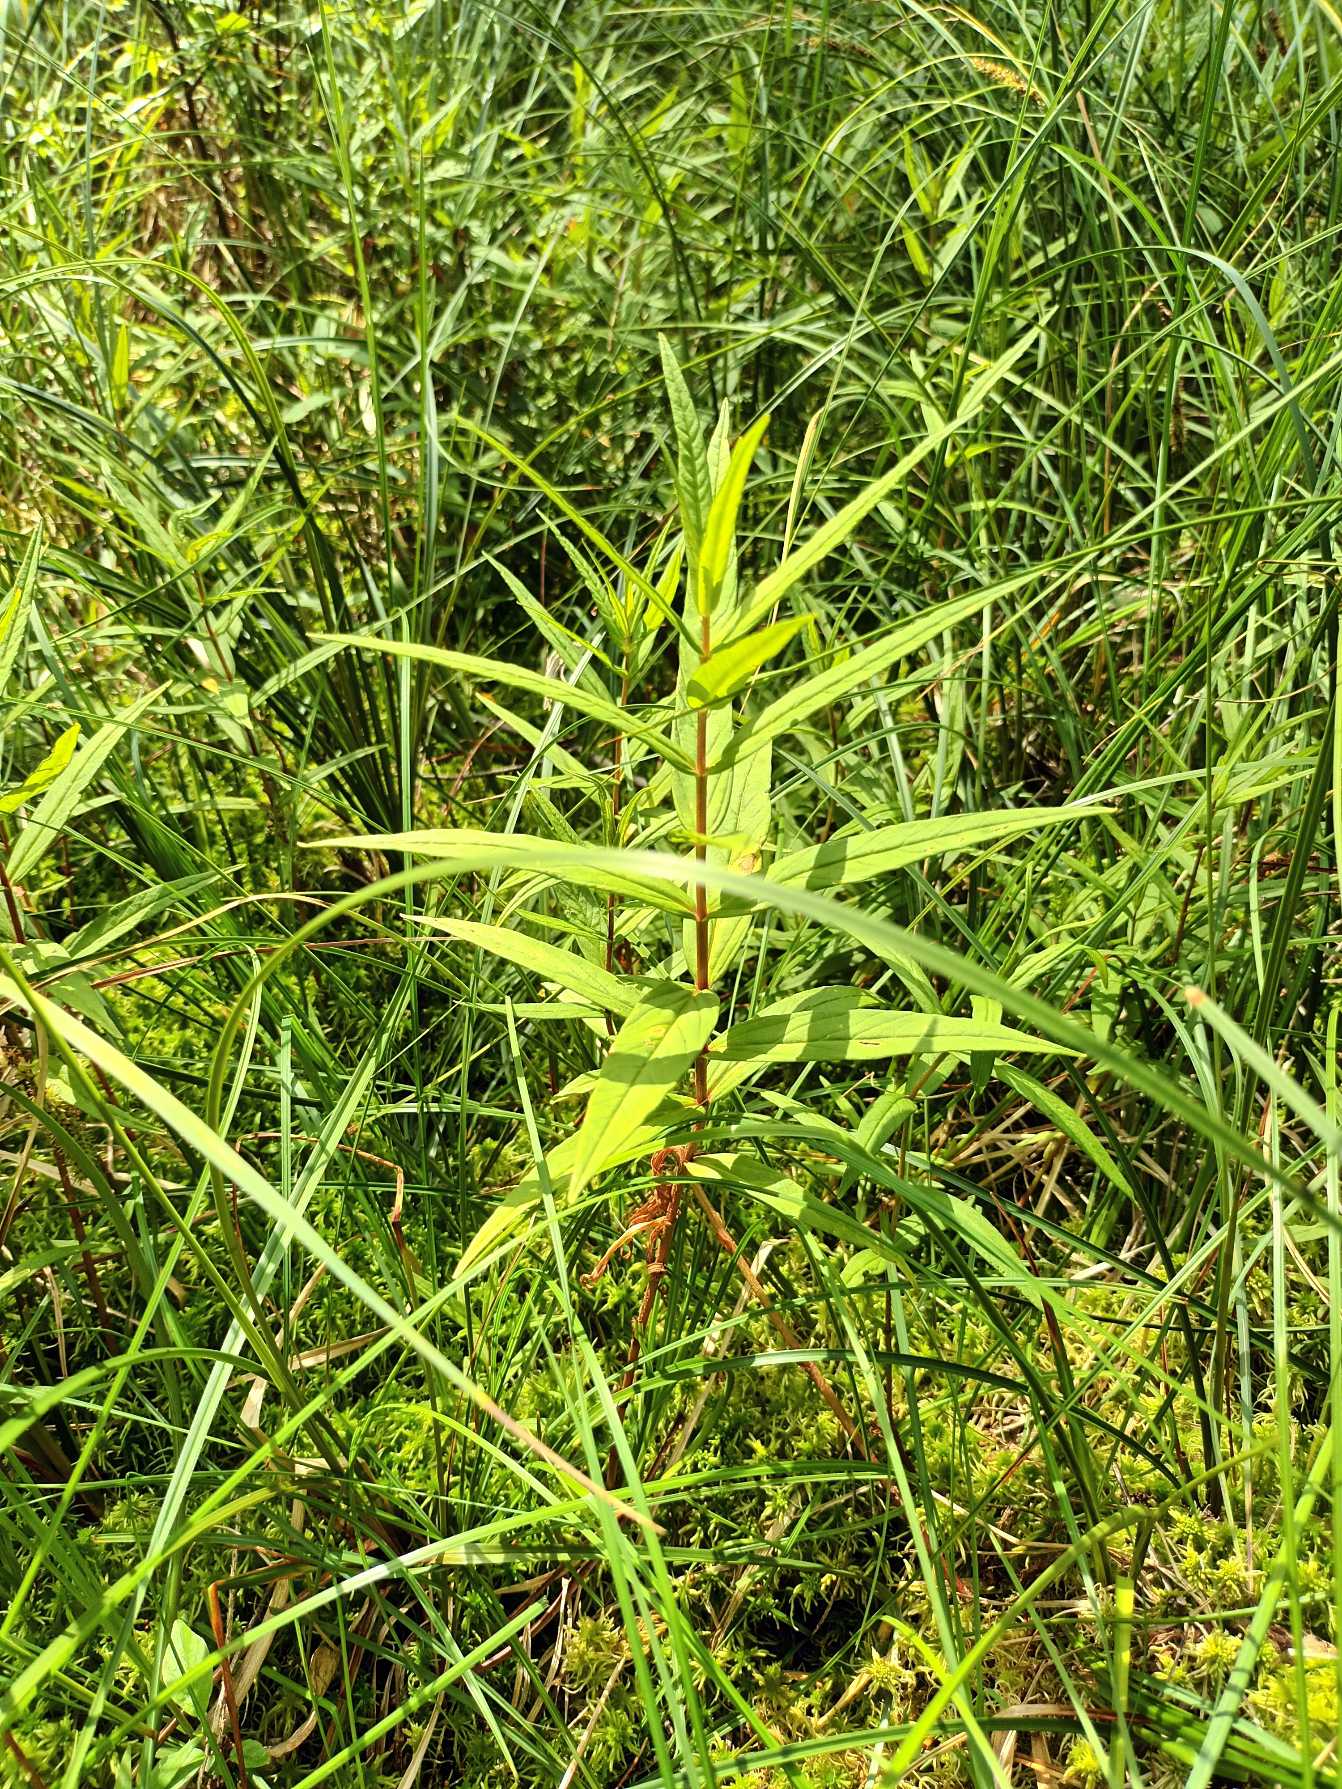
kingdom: Plantae
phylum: Tracheophyta
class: Magnoliopsida
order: Ericales
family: Primulaceae
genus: Lysimachia
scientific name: Lysimachia thyrsiflora
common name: Dusk-fredløs
